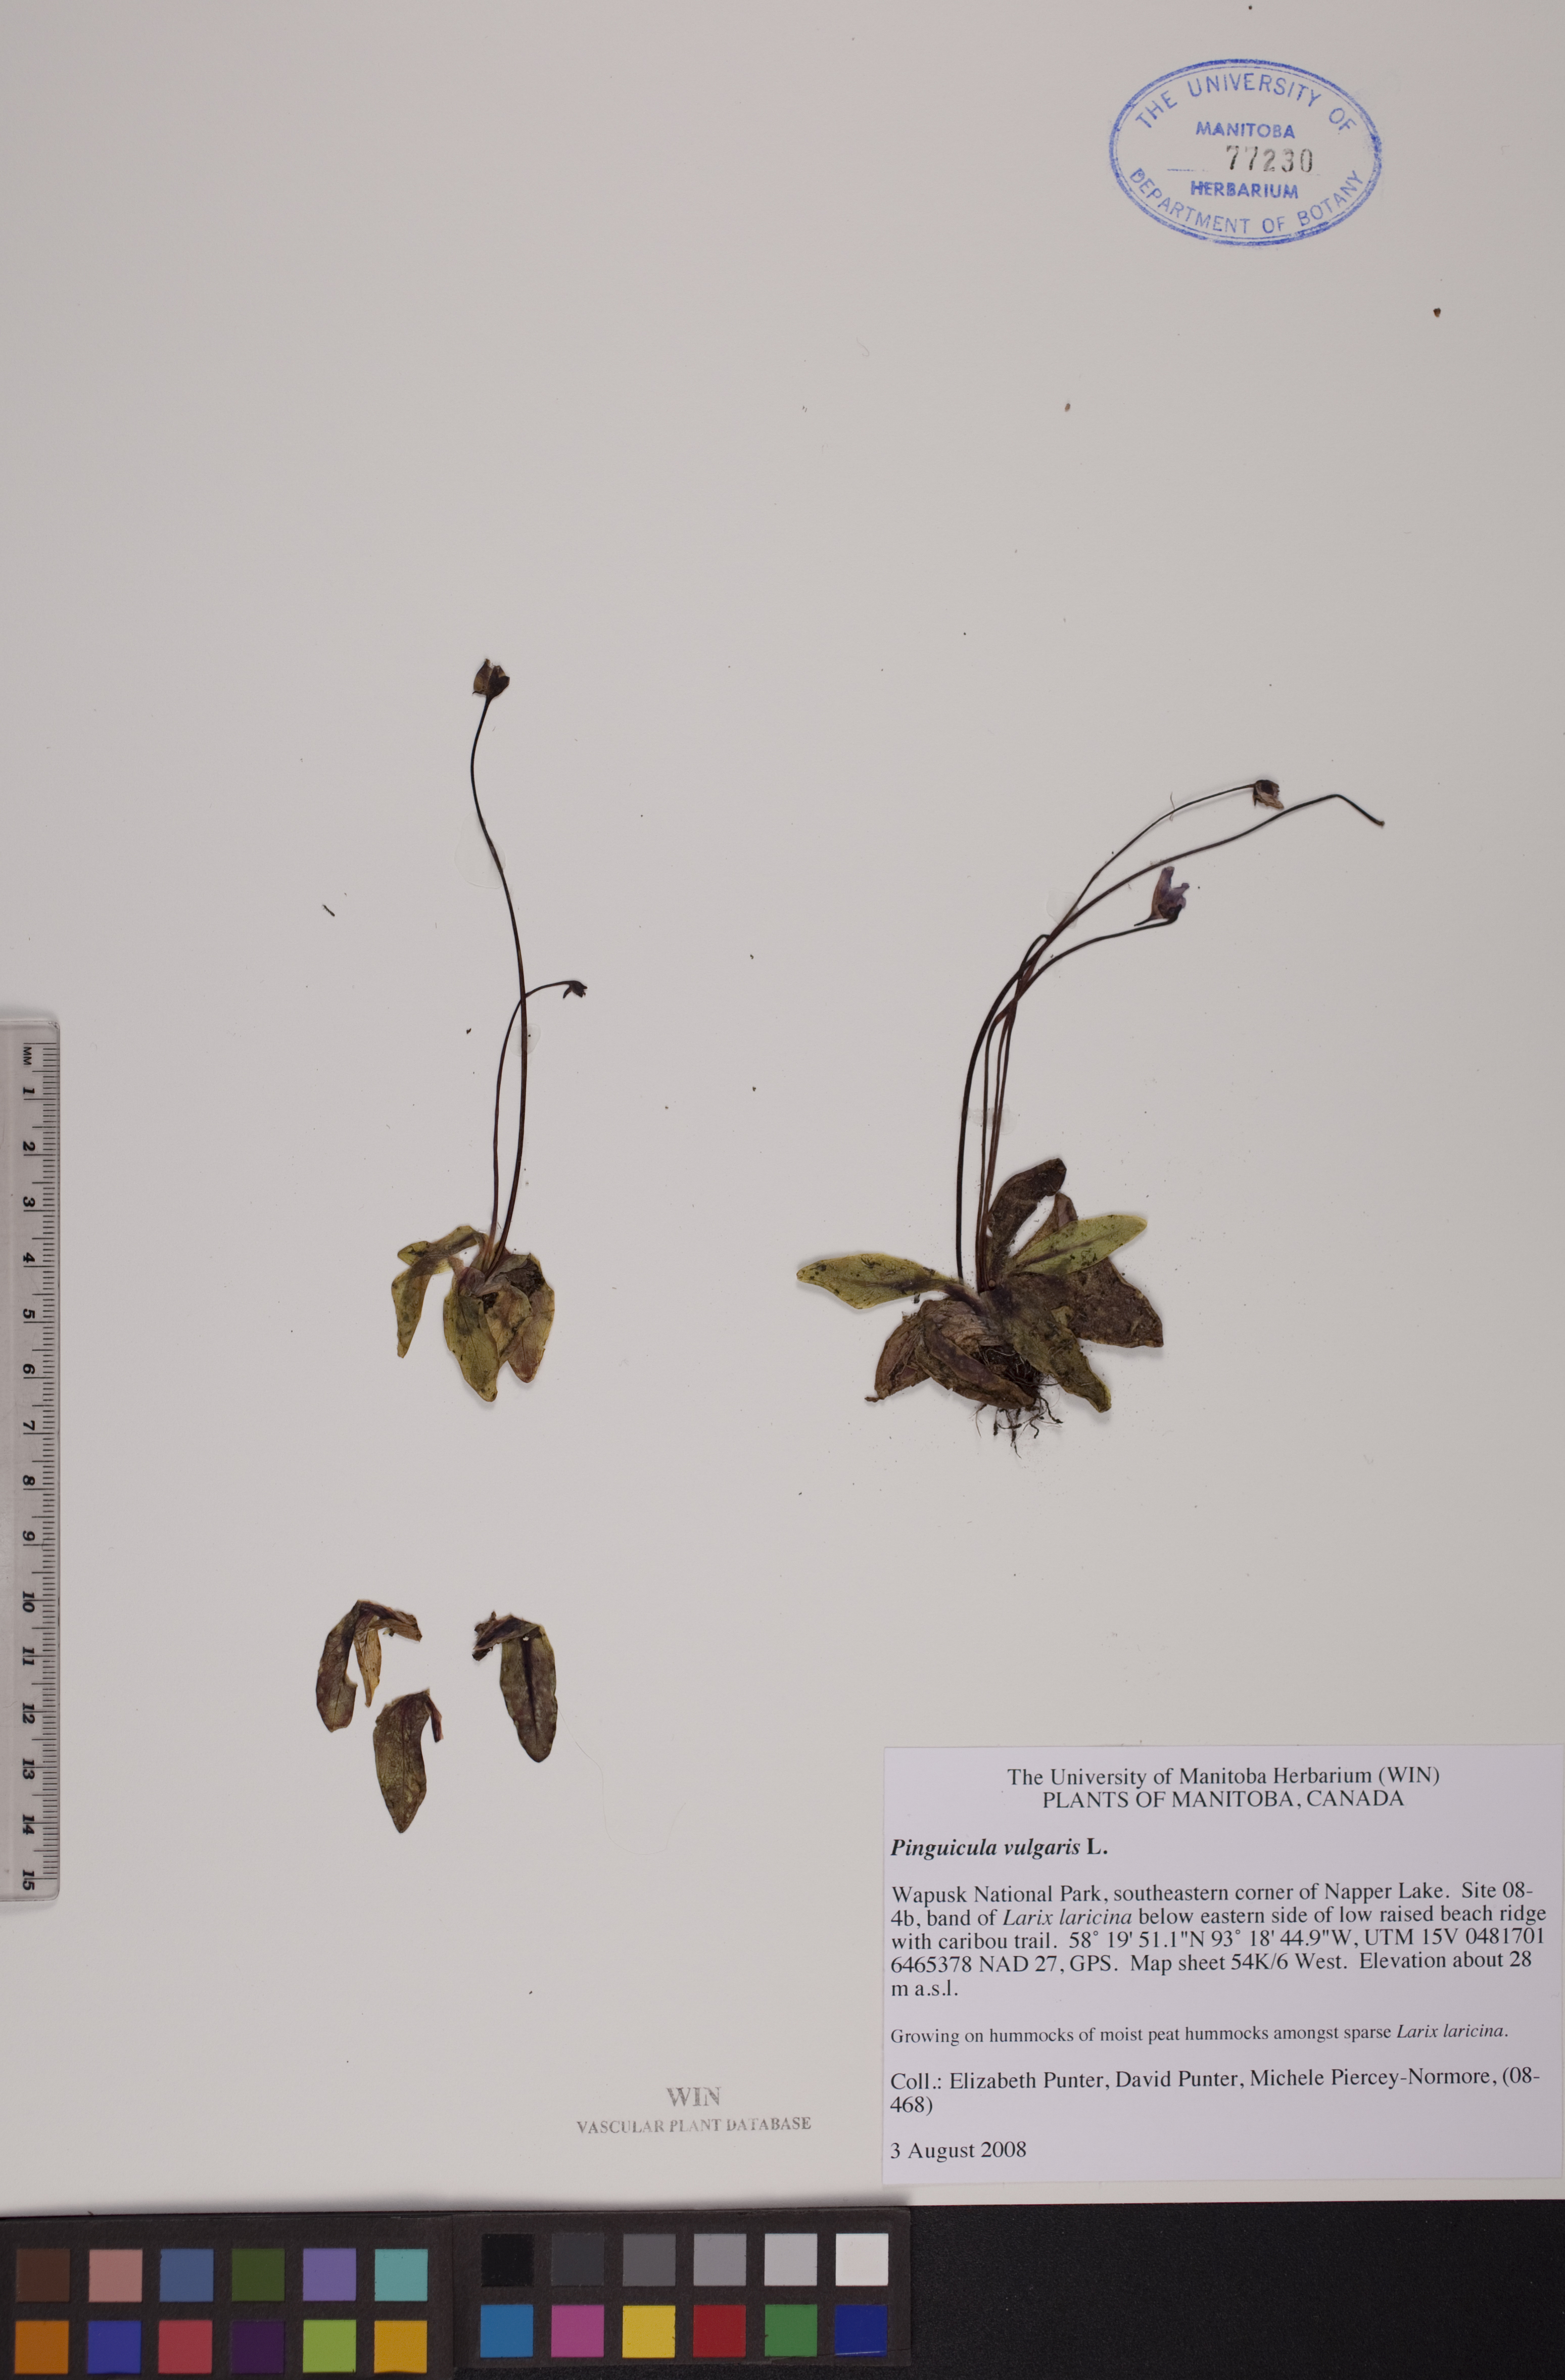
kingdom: Plantae
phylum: Tracheophyta
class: Magnoliopsida
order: Lamiales
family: Lentibulariaceae
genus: Pinguicula
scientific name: Pinguicula vulgaris
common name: Common butterwort
